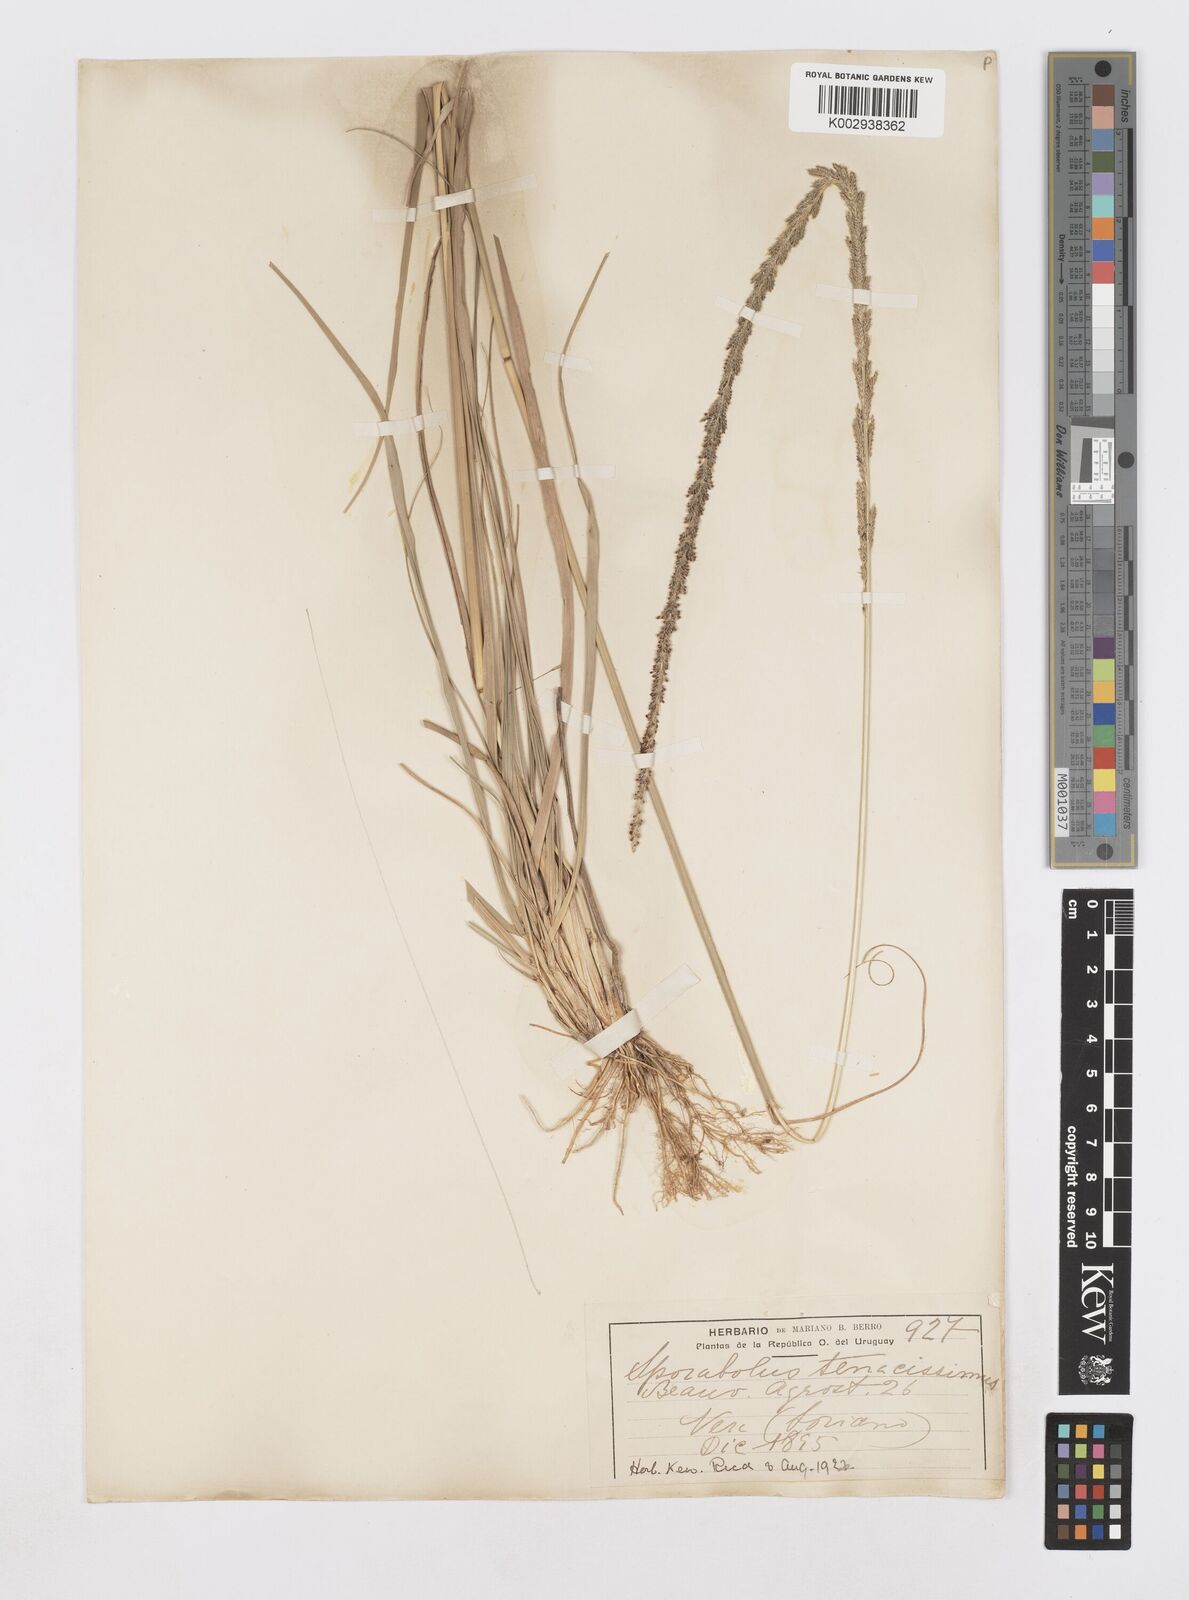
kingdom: Plantae
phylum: Tracheophyta
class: Liliopsida
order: Poales
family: Poaceae
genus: Sporobolus
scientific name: Sporobolus pyramidalis
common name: West indian dropseed
